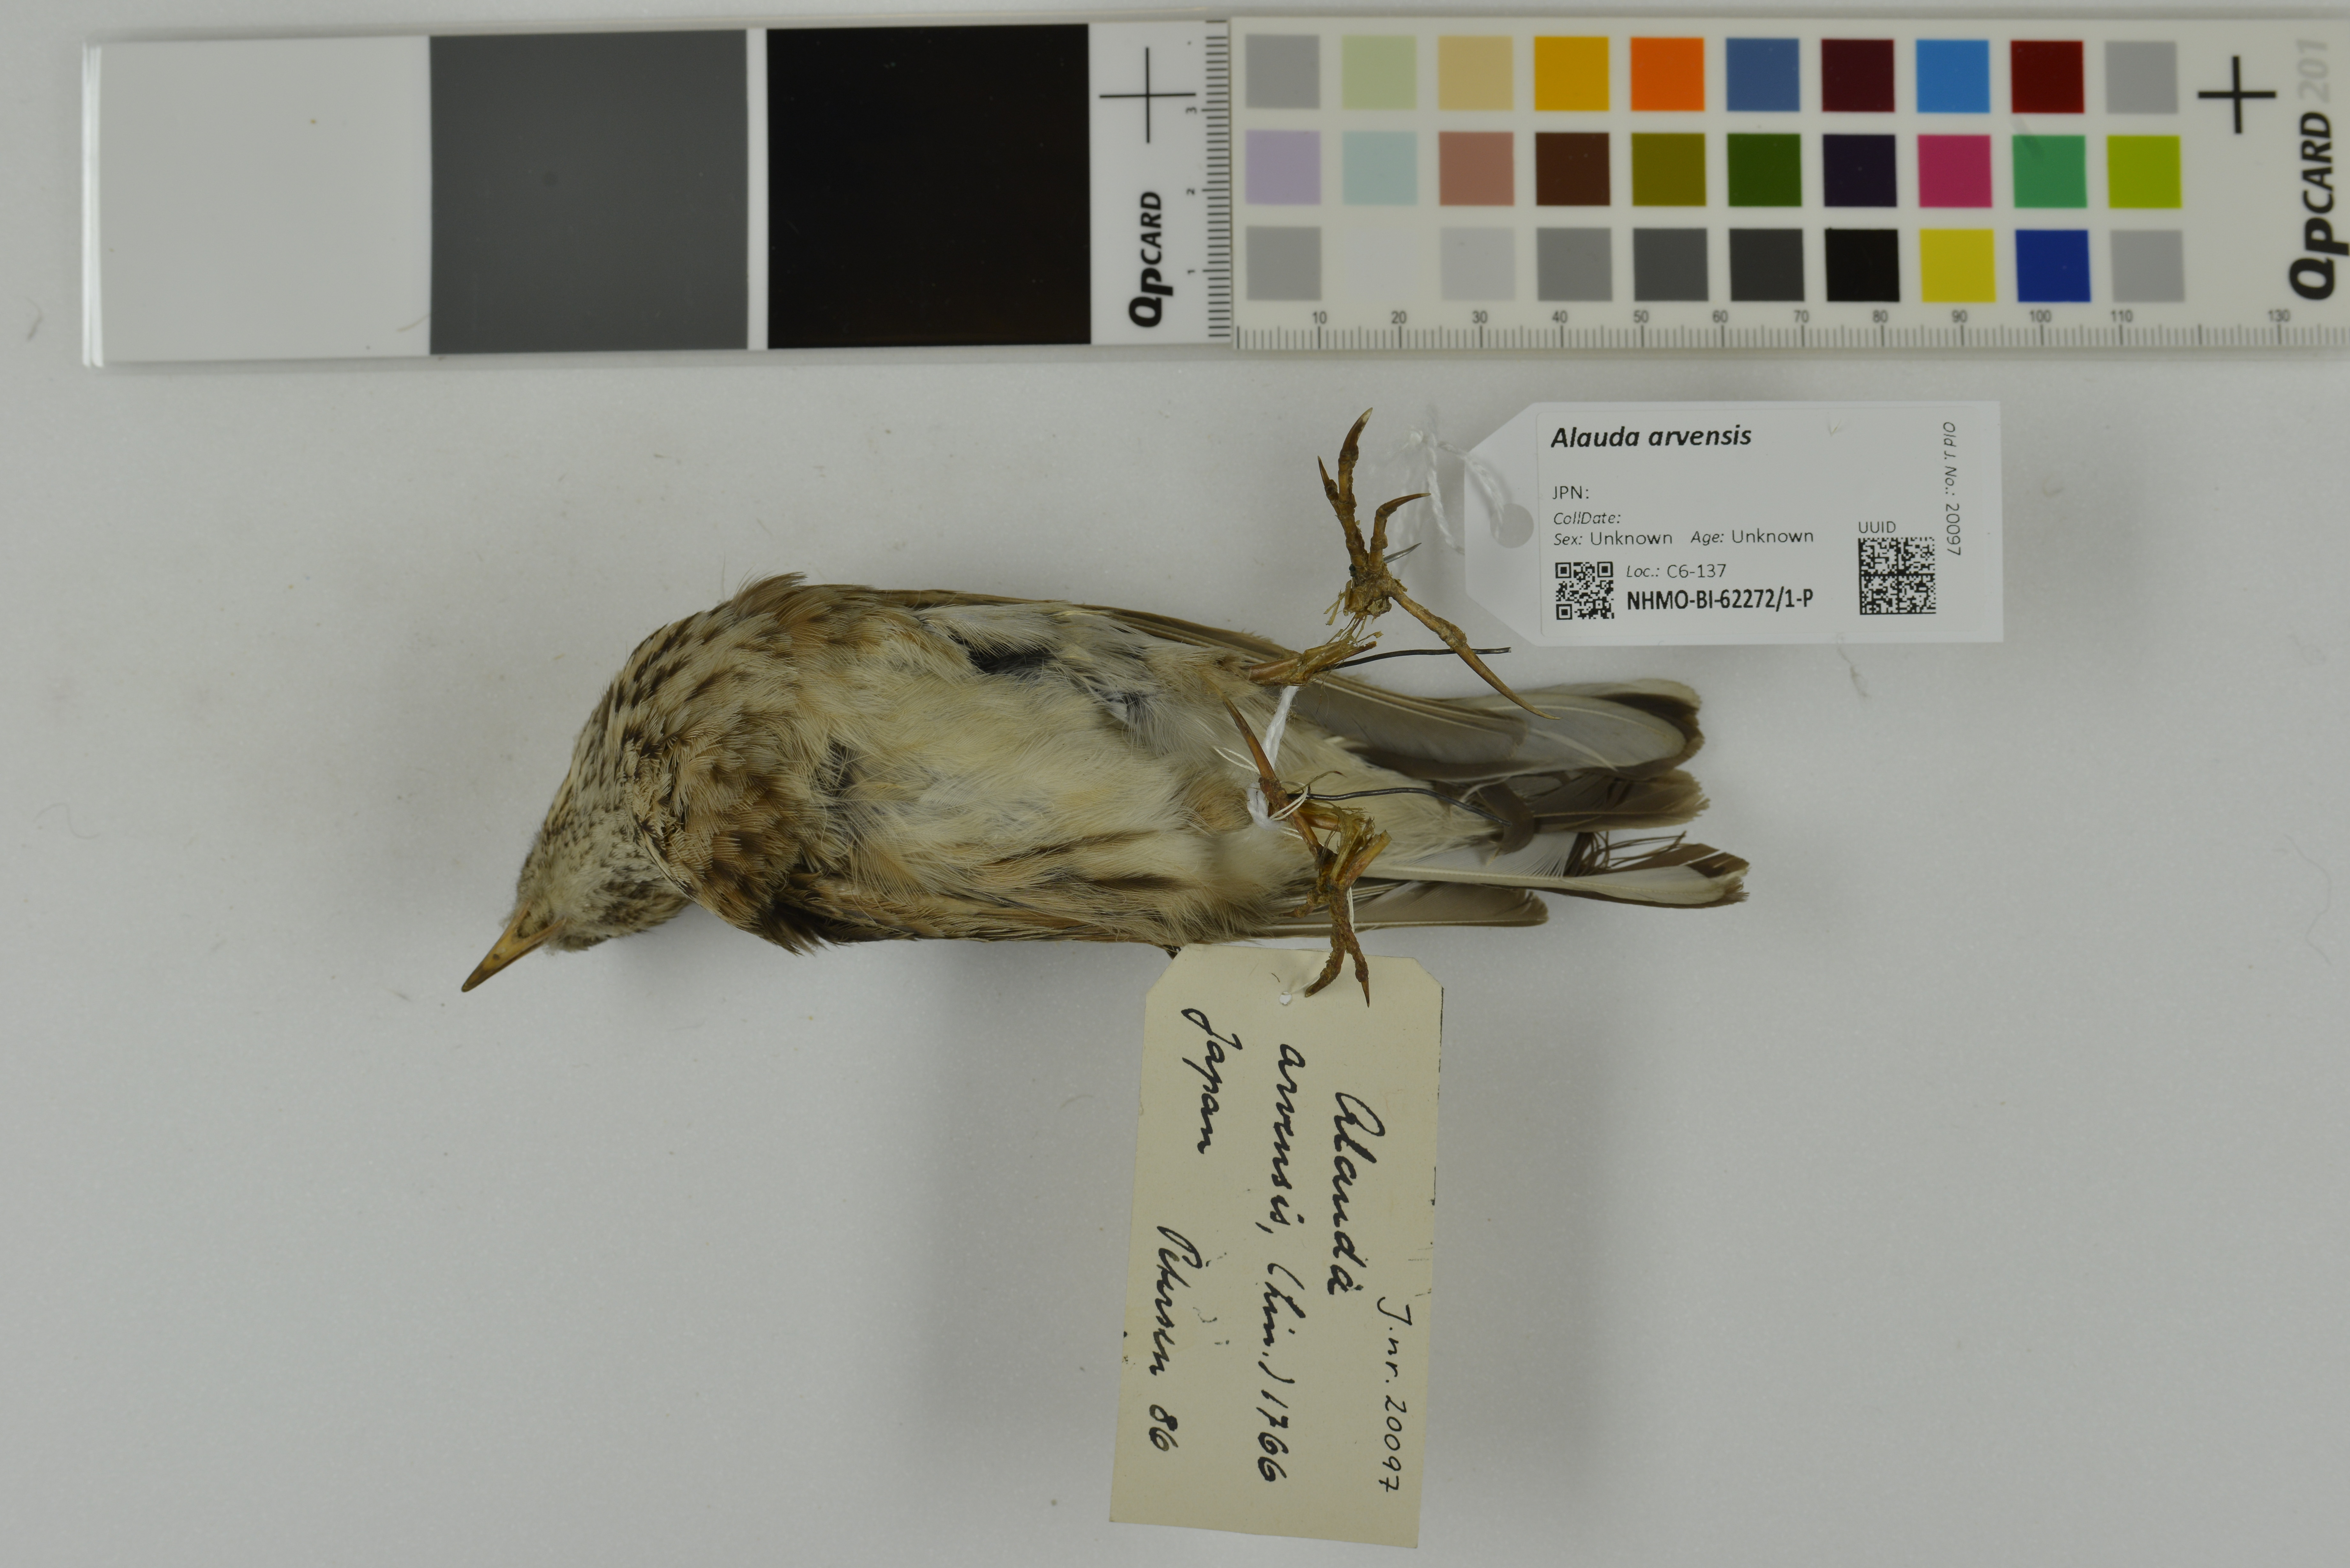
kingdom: Animalia
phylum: Chordata
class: Aves
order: Passeriformes
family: Alaudidae
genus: Alauda
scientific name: Alauda arvensis
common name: Eurasian skylark
